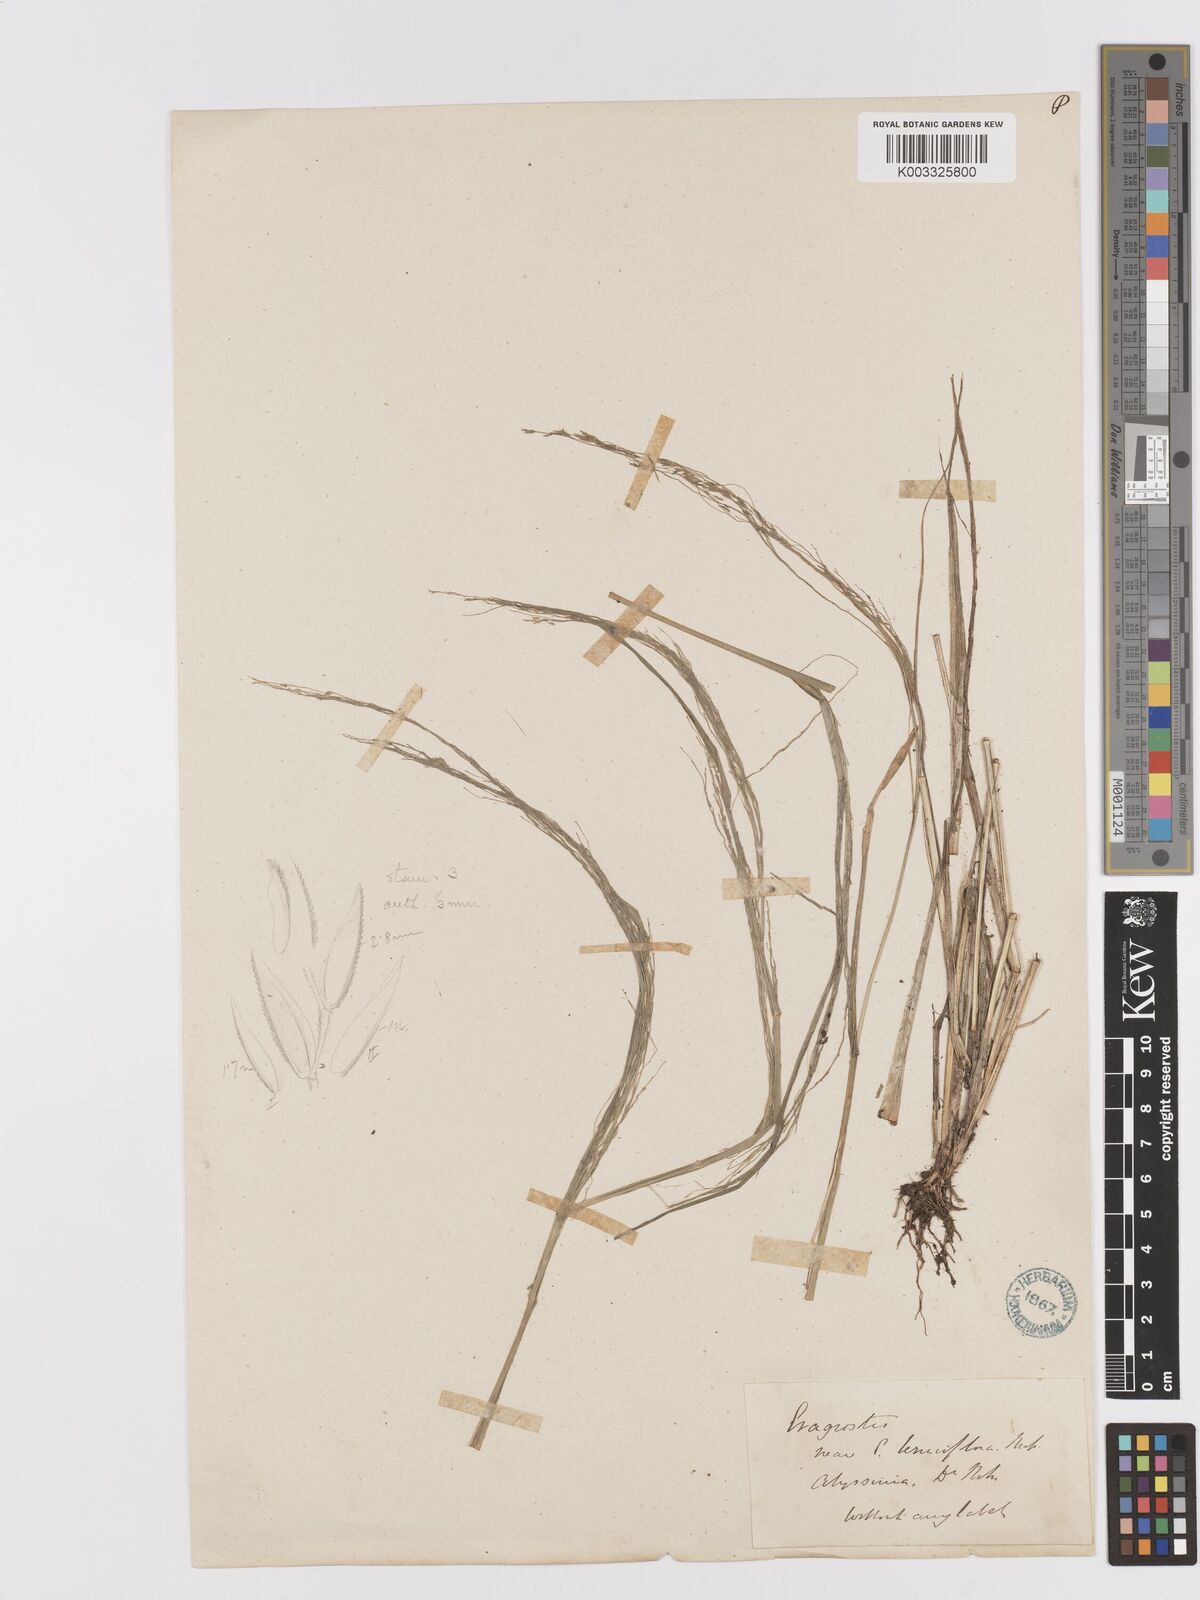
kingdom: Plantae
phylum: Tracheophyta
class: Liliopsida
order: Poales
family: Poaceae
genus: Eragrostis
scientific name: Eragrostis tef
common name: Teff
